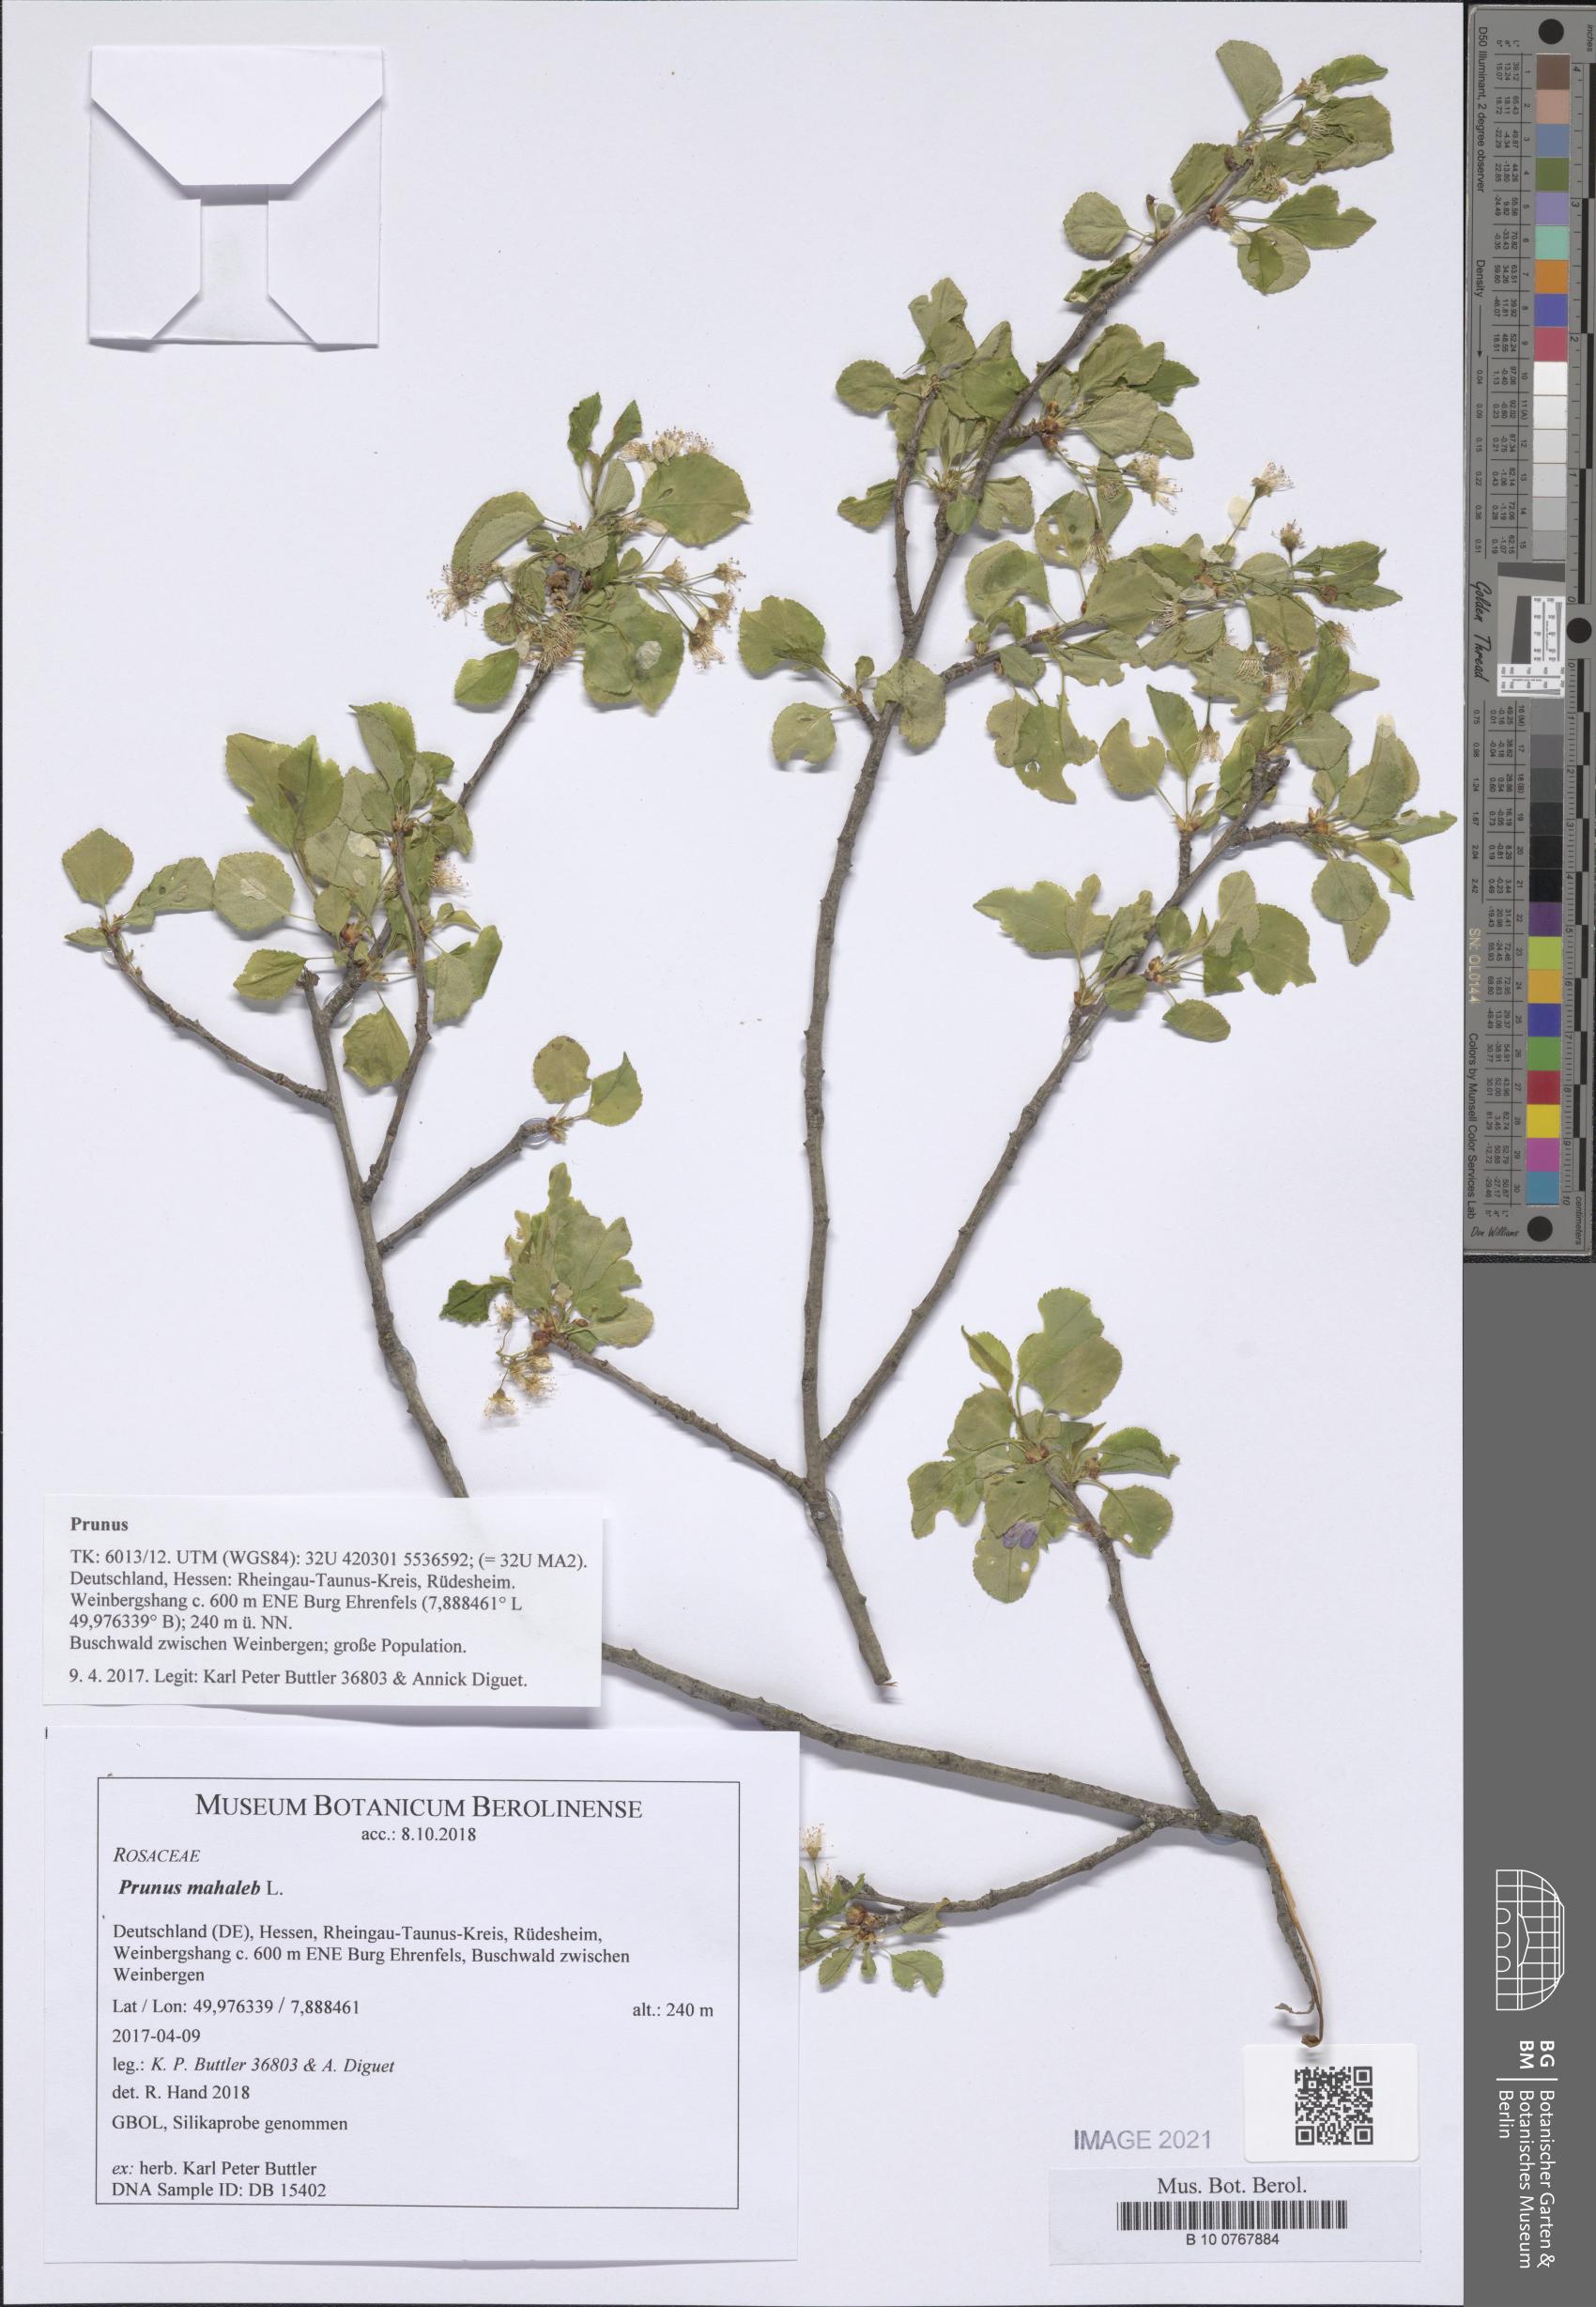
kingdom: Plantae
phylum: Tracheophyta
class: Magnoliopsida
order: Rosales
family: Rosaceae
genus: Prunus
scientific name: Prunus mahaleb
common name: Mahaleb cherry
